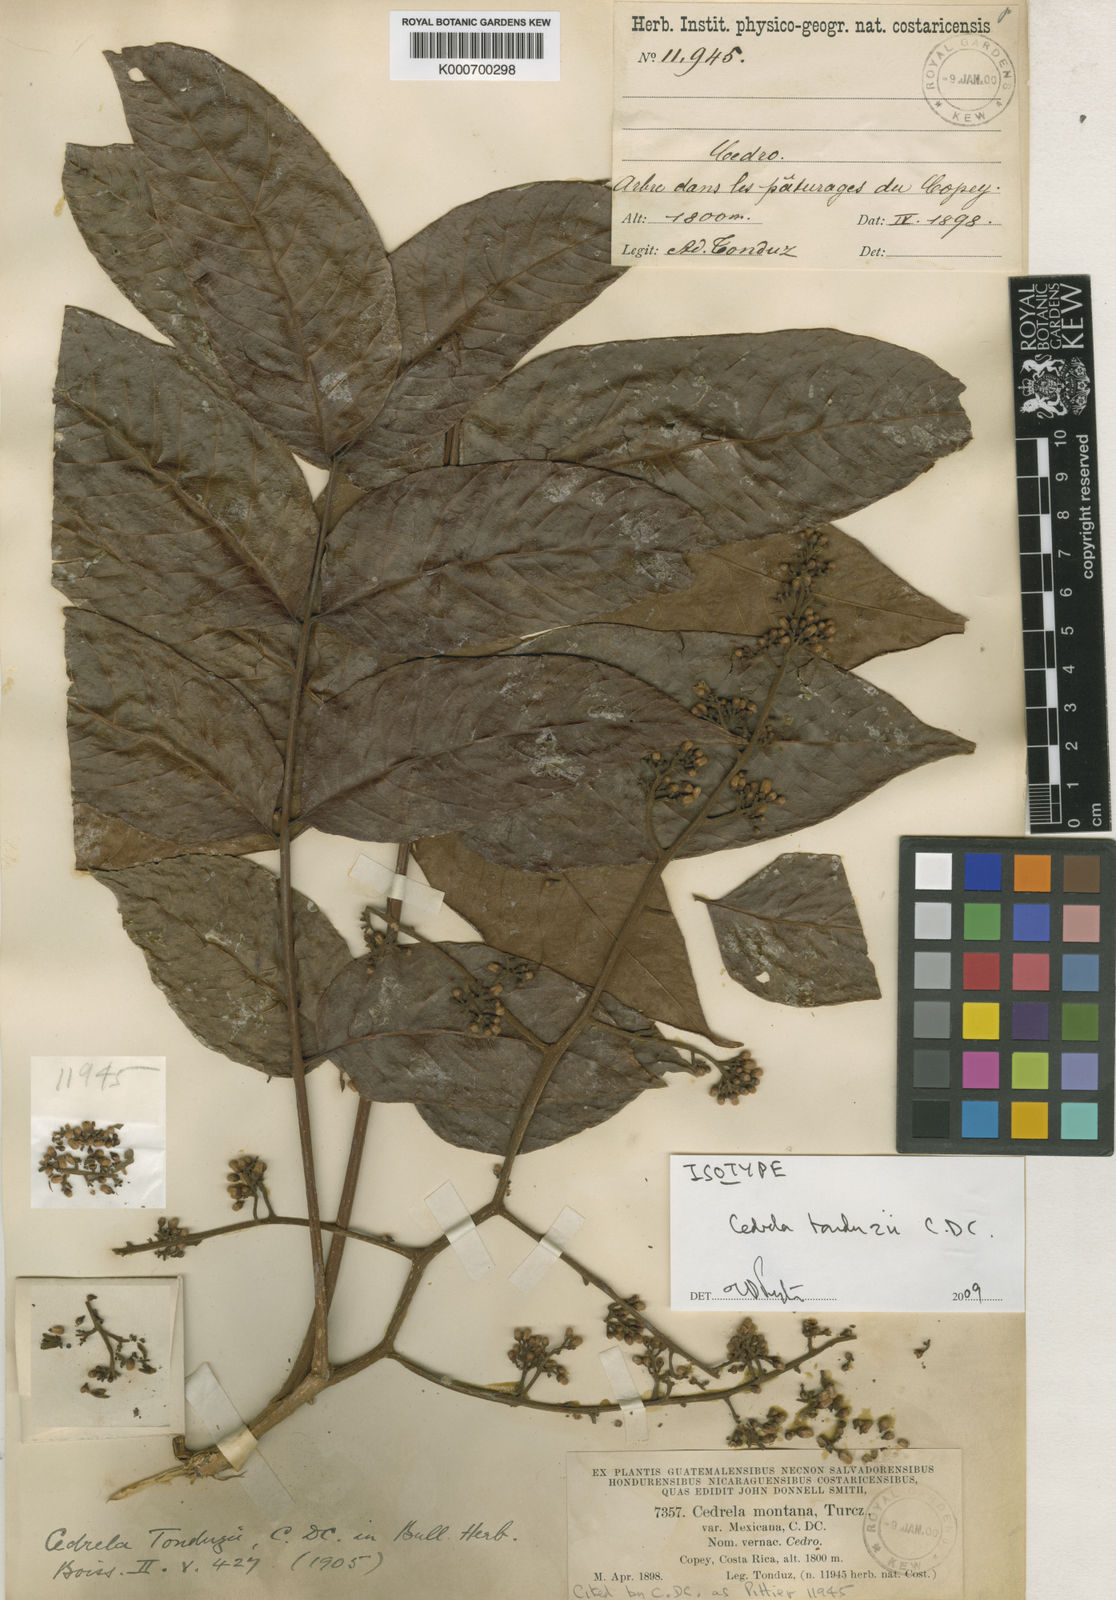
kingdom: Plantae
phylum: Tracheophyta
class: Magnoliopsida
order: Sapindales
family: Meliaceae
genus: Cedrela
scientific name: Cedrela tonduzii
